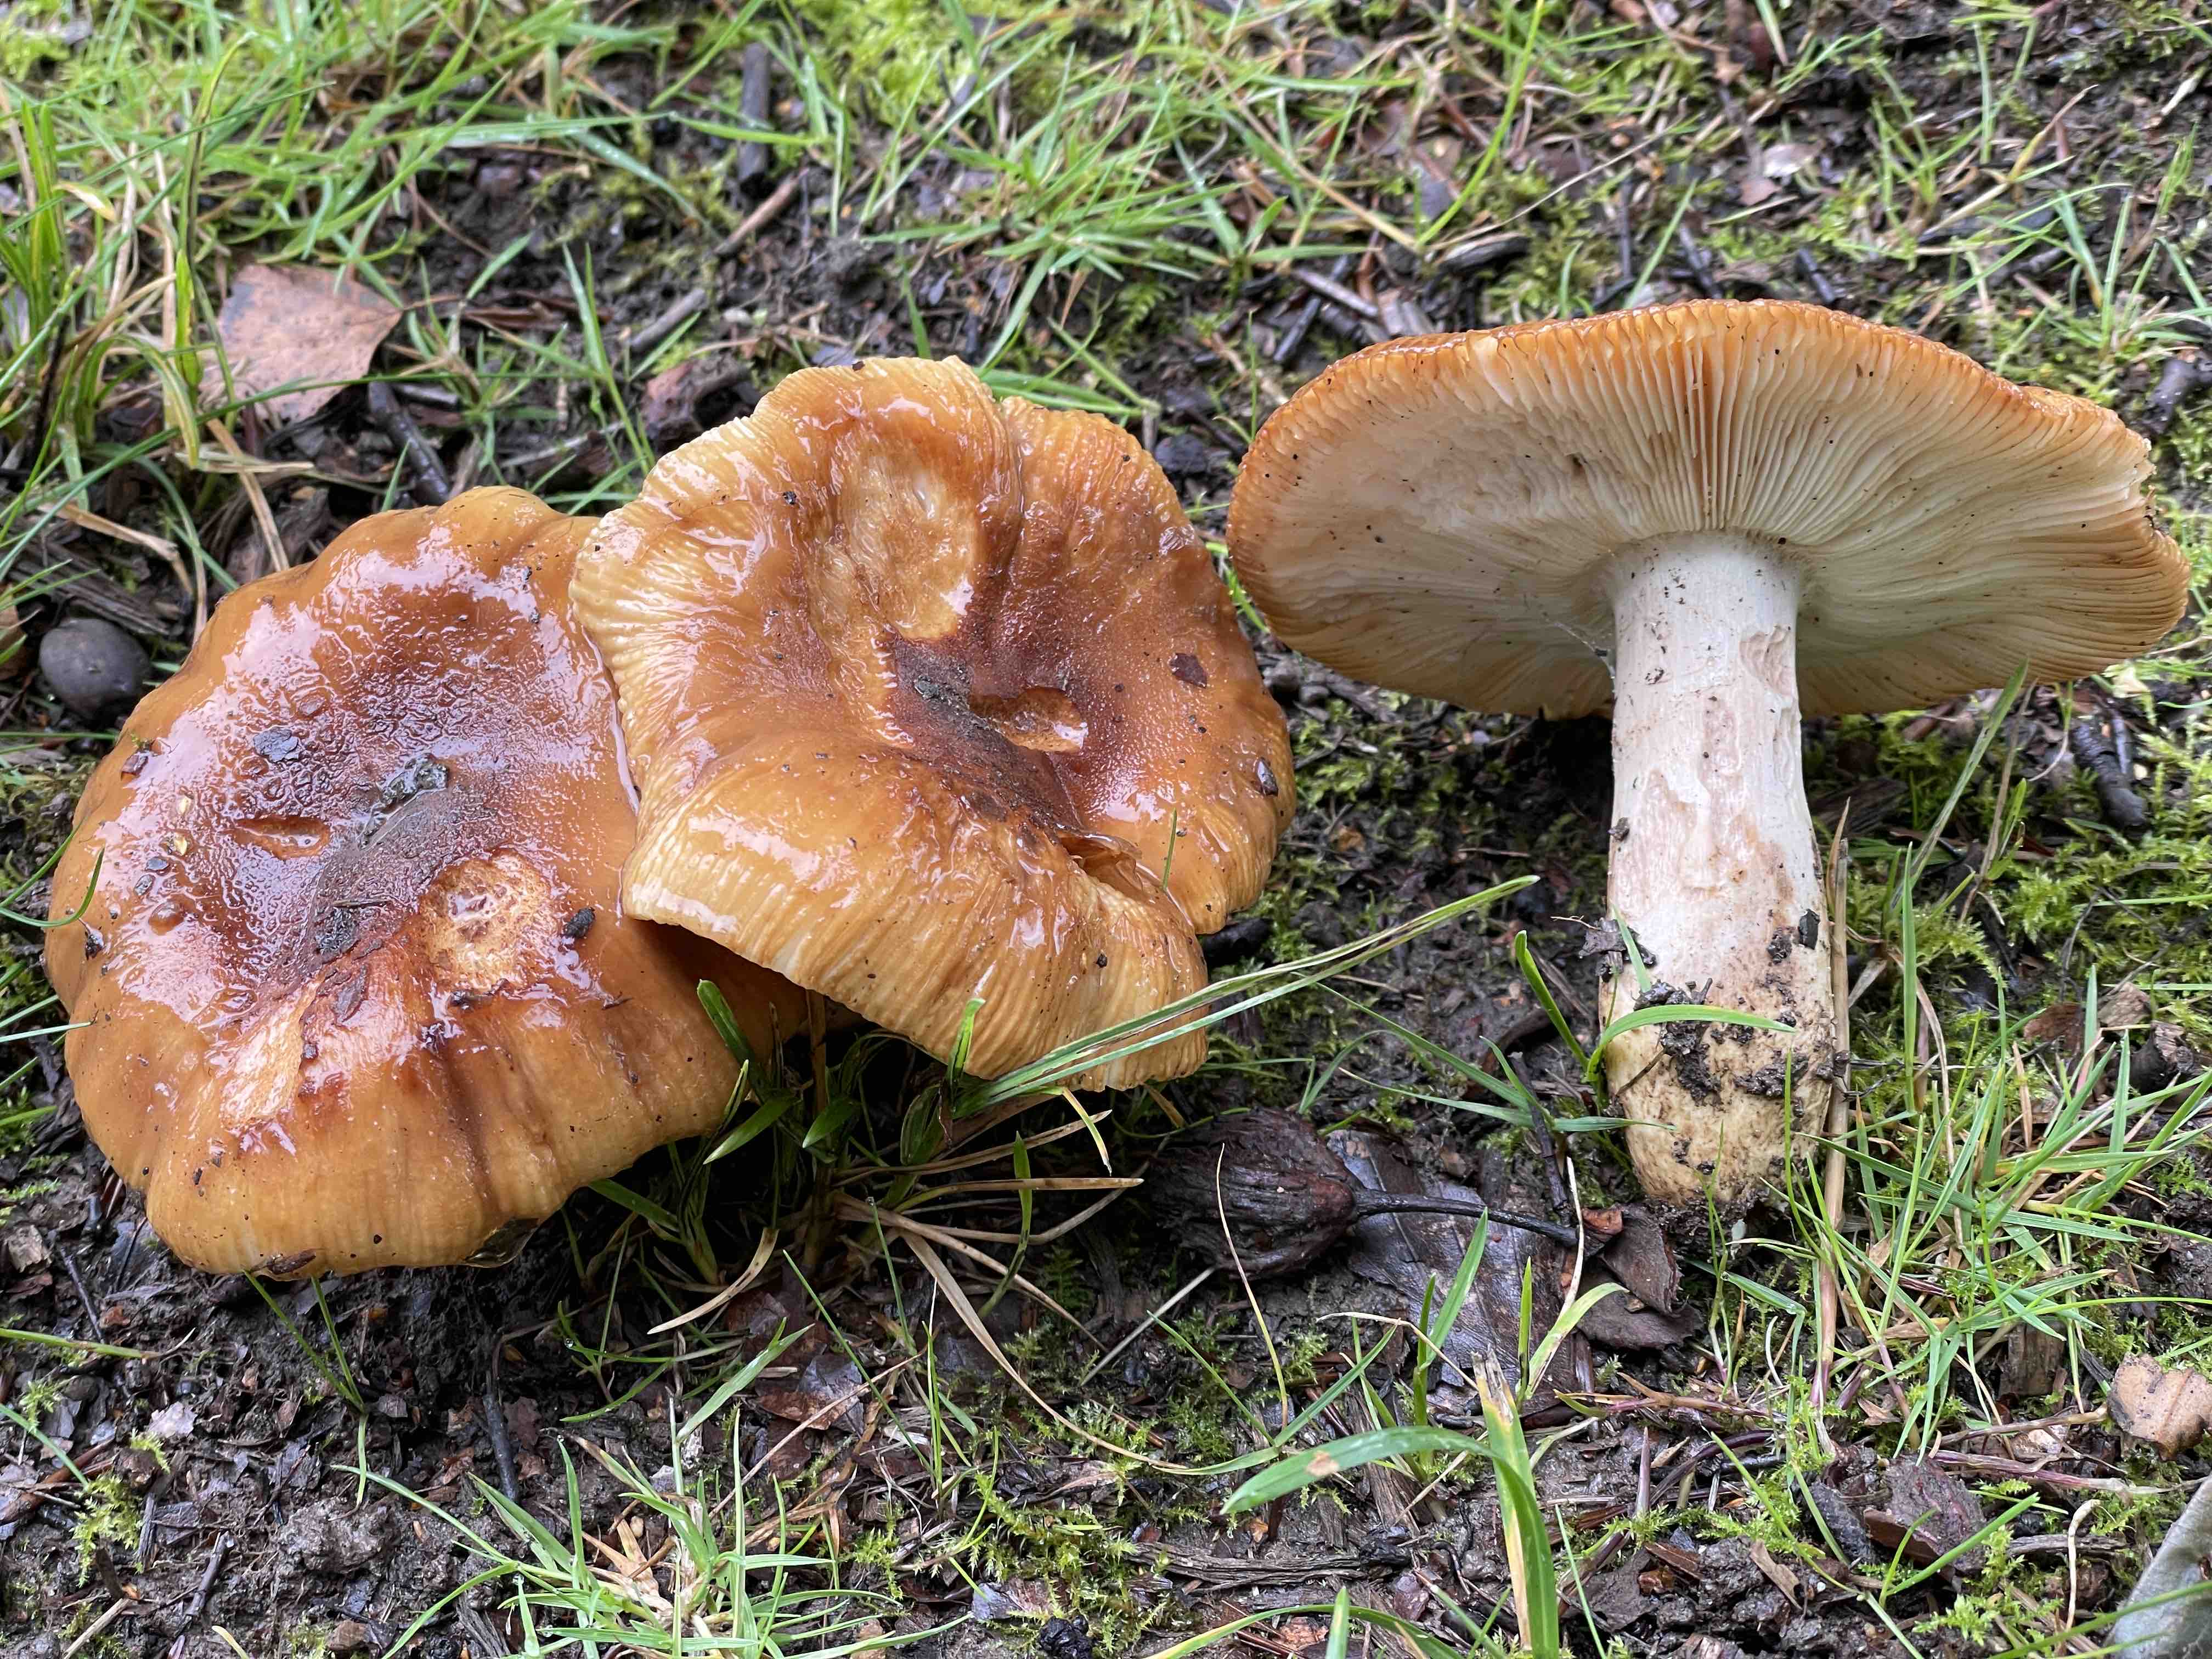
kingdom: Fungi
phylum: Basidiomycota
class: Agaricomycetes
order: Russulales
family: Russulaceae
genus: Russula
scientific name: Russula foetens
